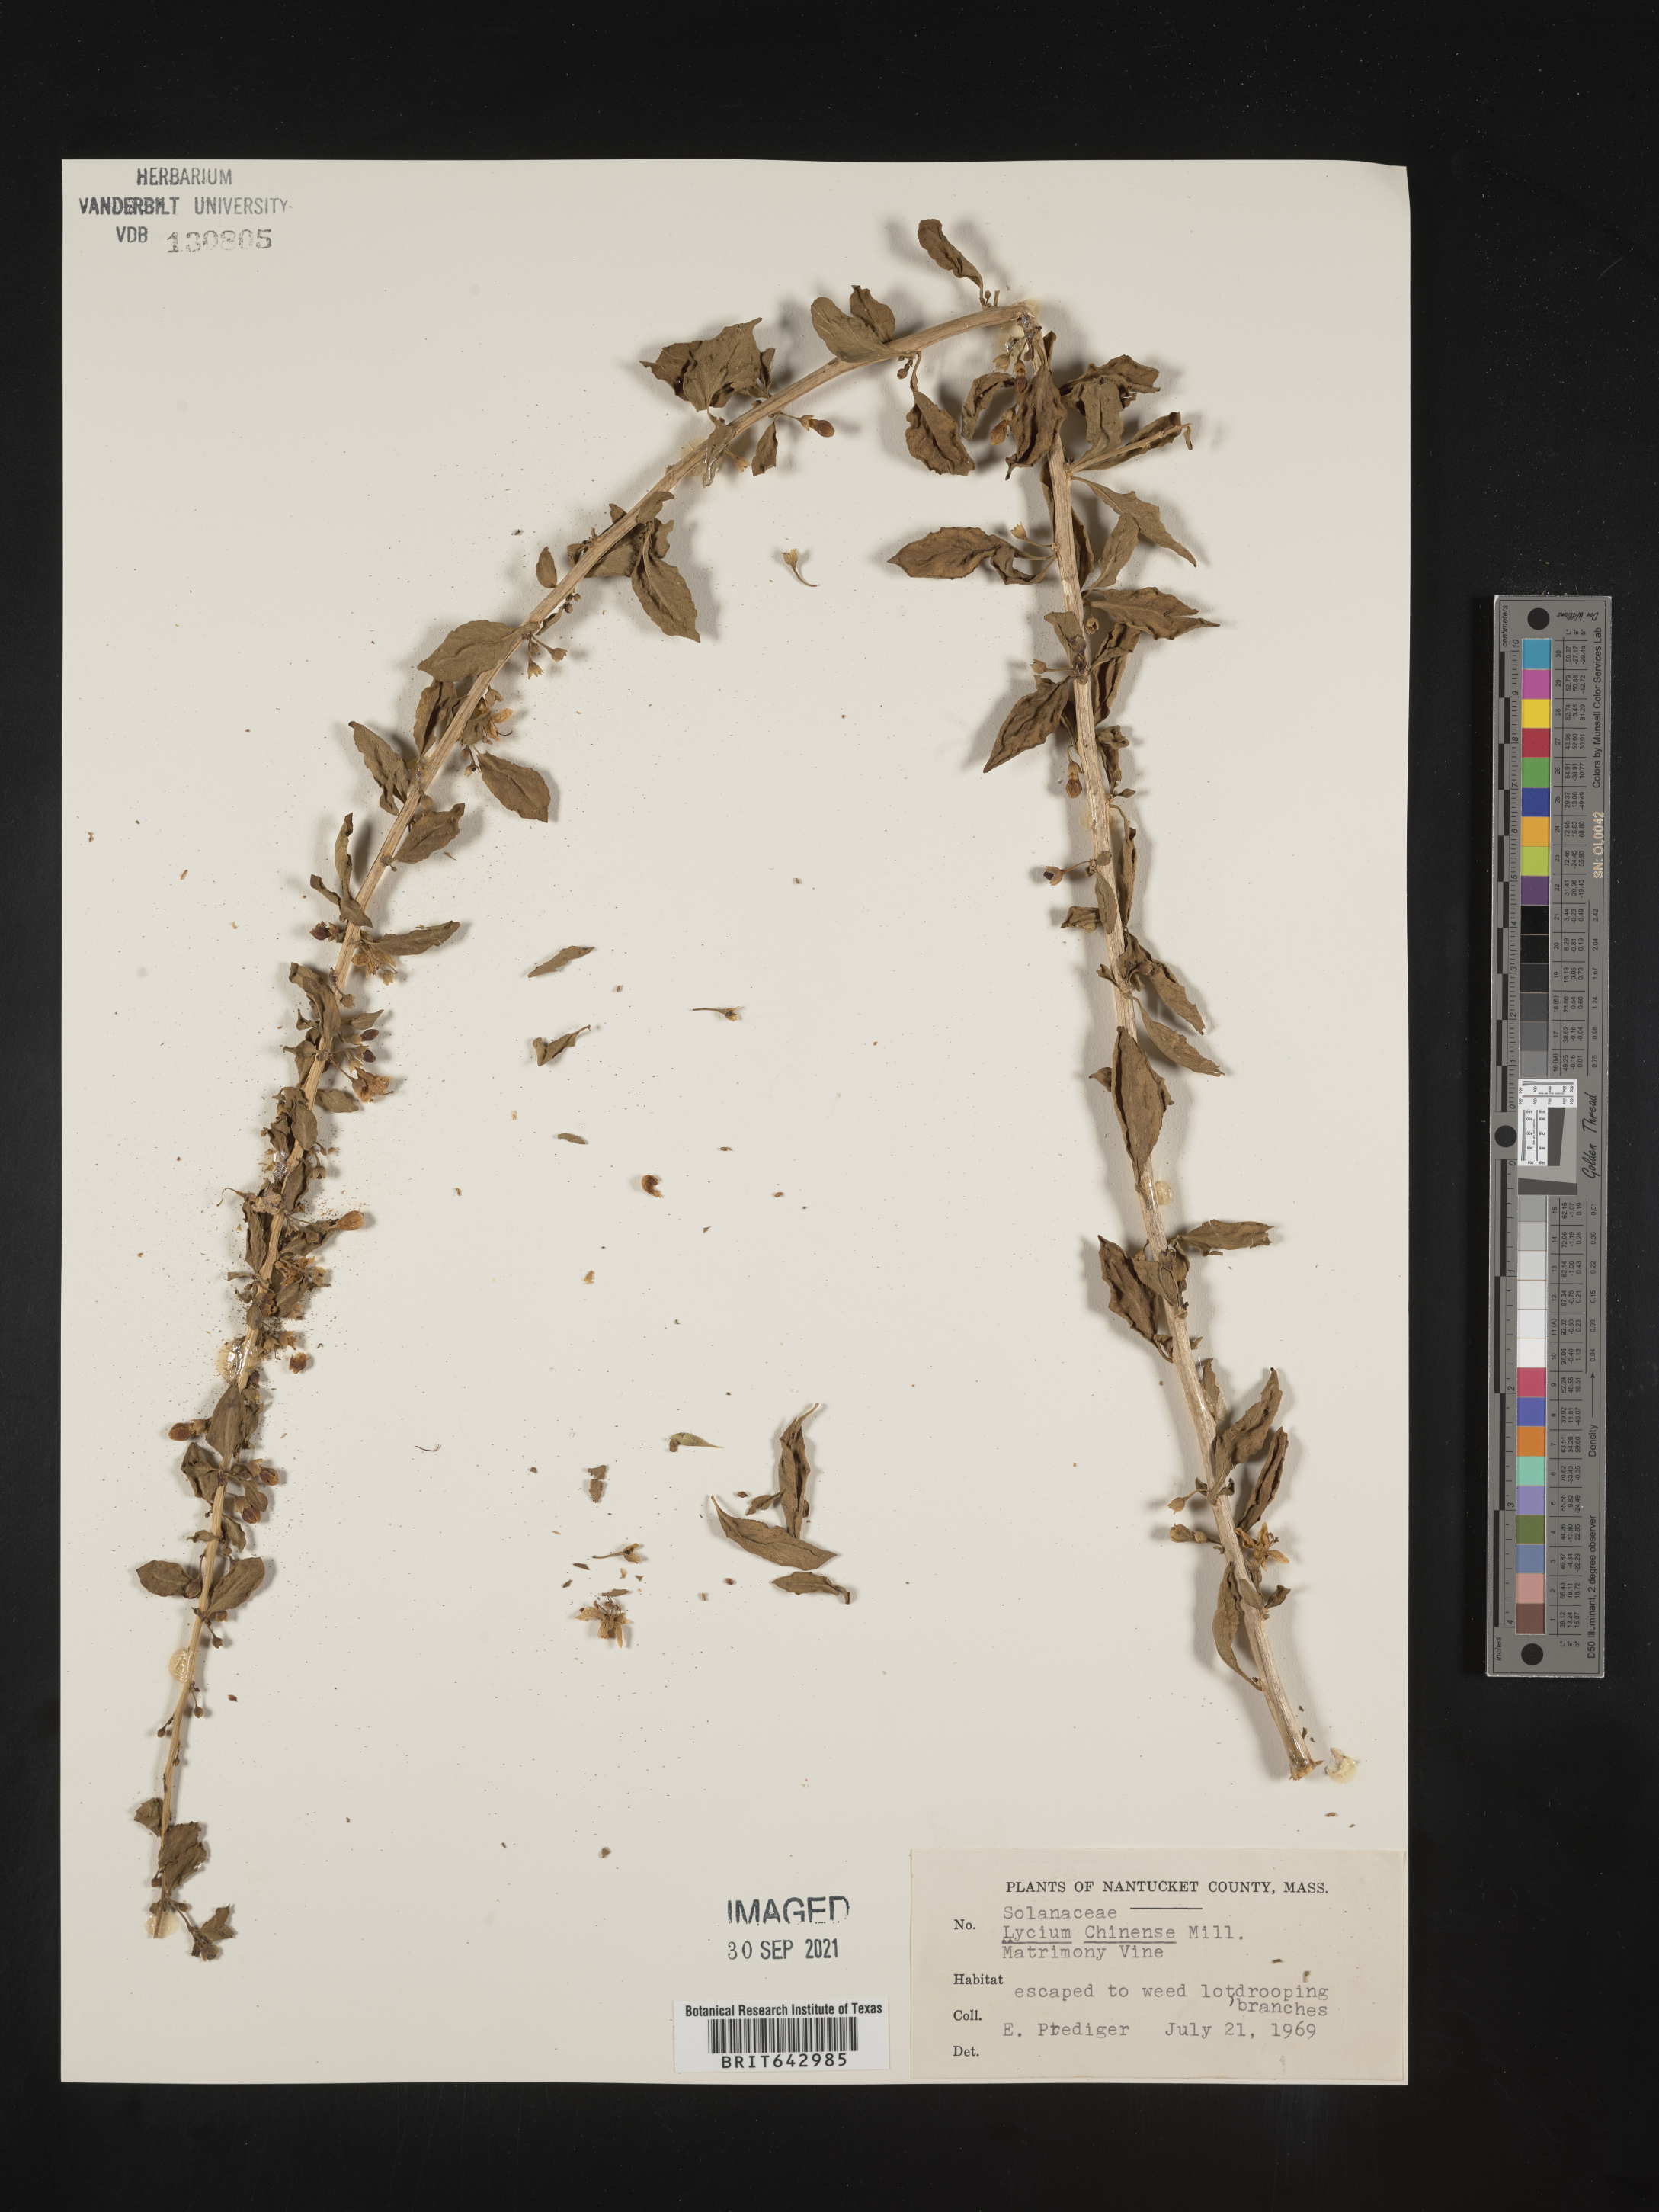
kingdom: Plantae
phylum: Tracheophyta
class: Magnoliopsida
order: Solanales
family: Solanaceae
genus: Lycium
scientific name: Lycium
